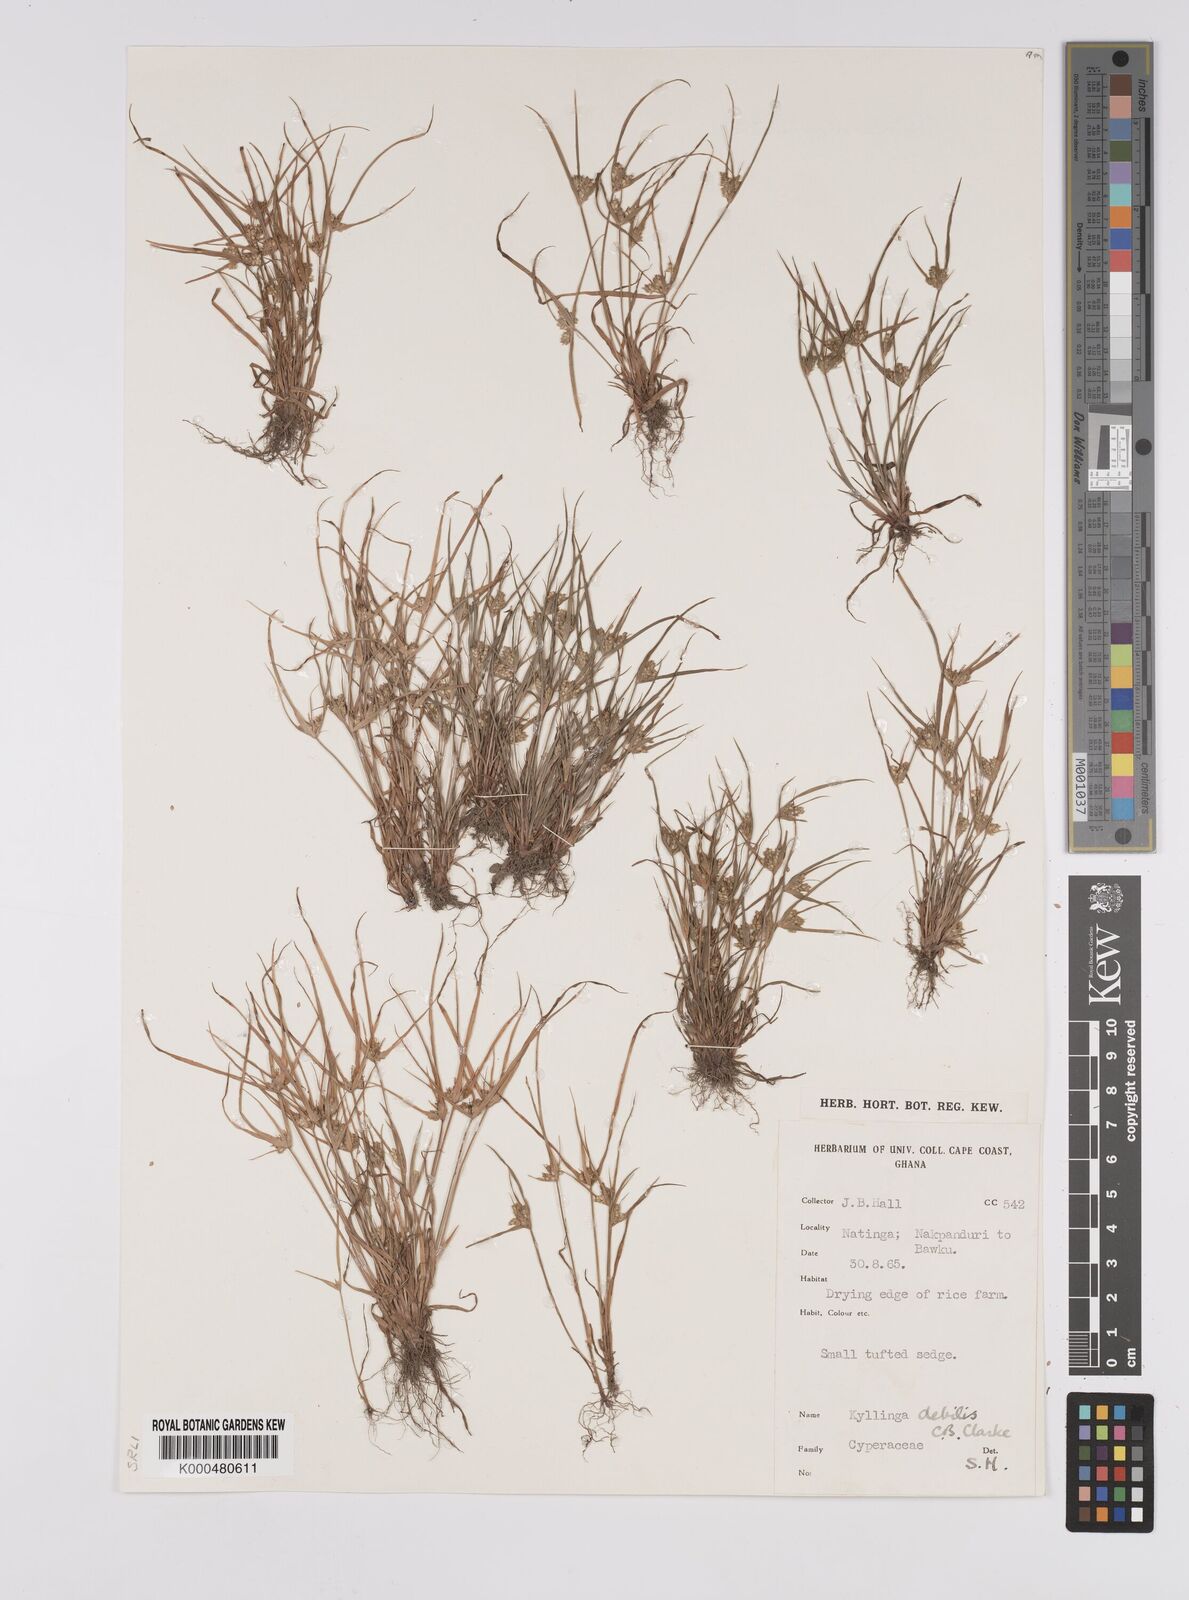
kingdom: Plantae
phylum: Tracheophyta
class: Liliopsida
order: Poales
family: Cyperaceae
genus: Cyperus
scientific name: Cyperus leptorhachis
